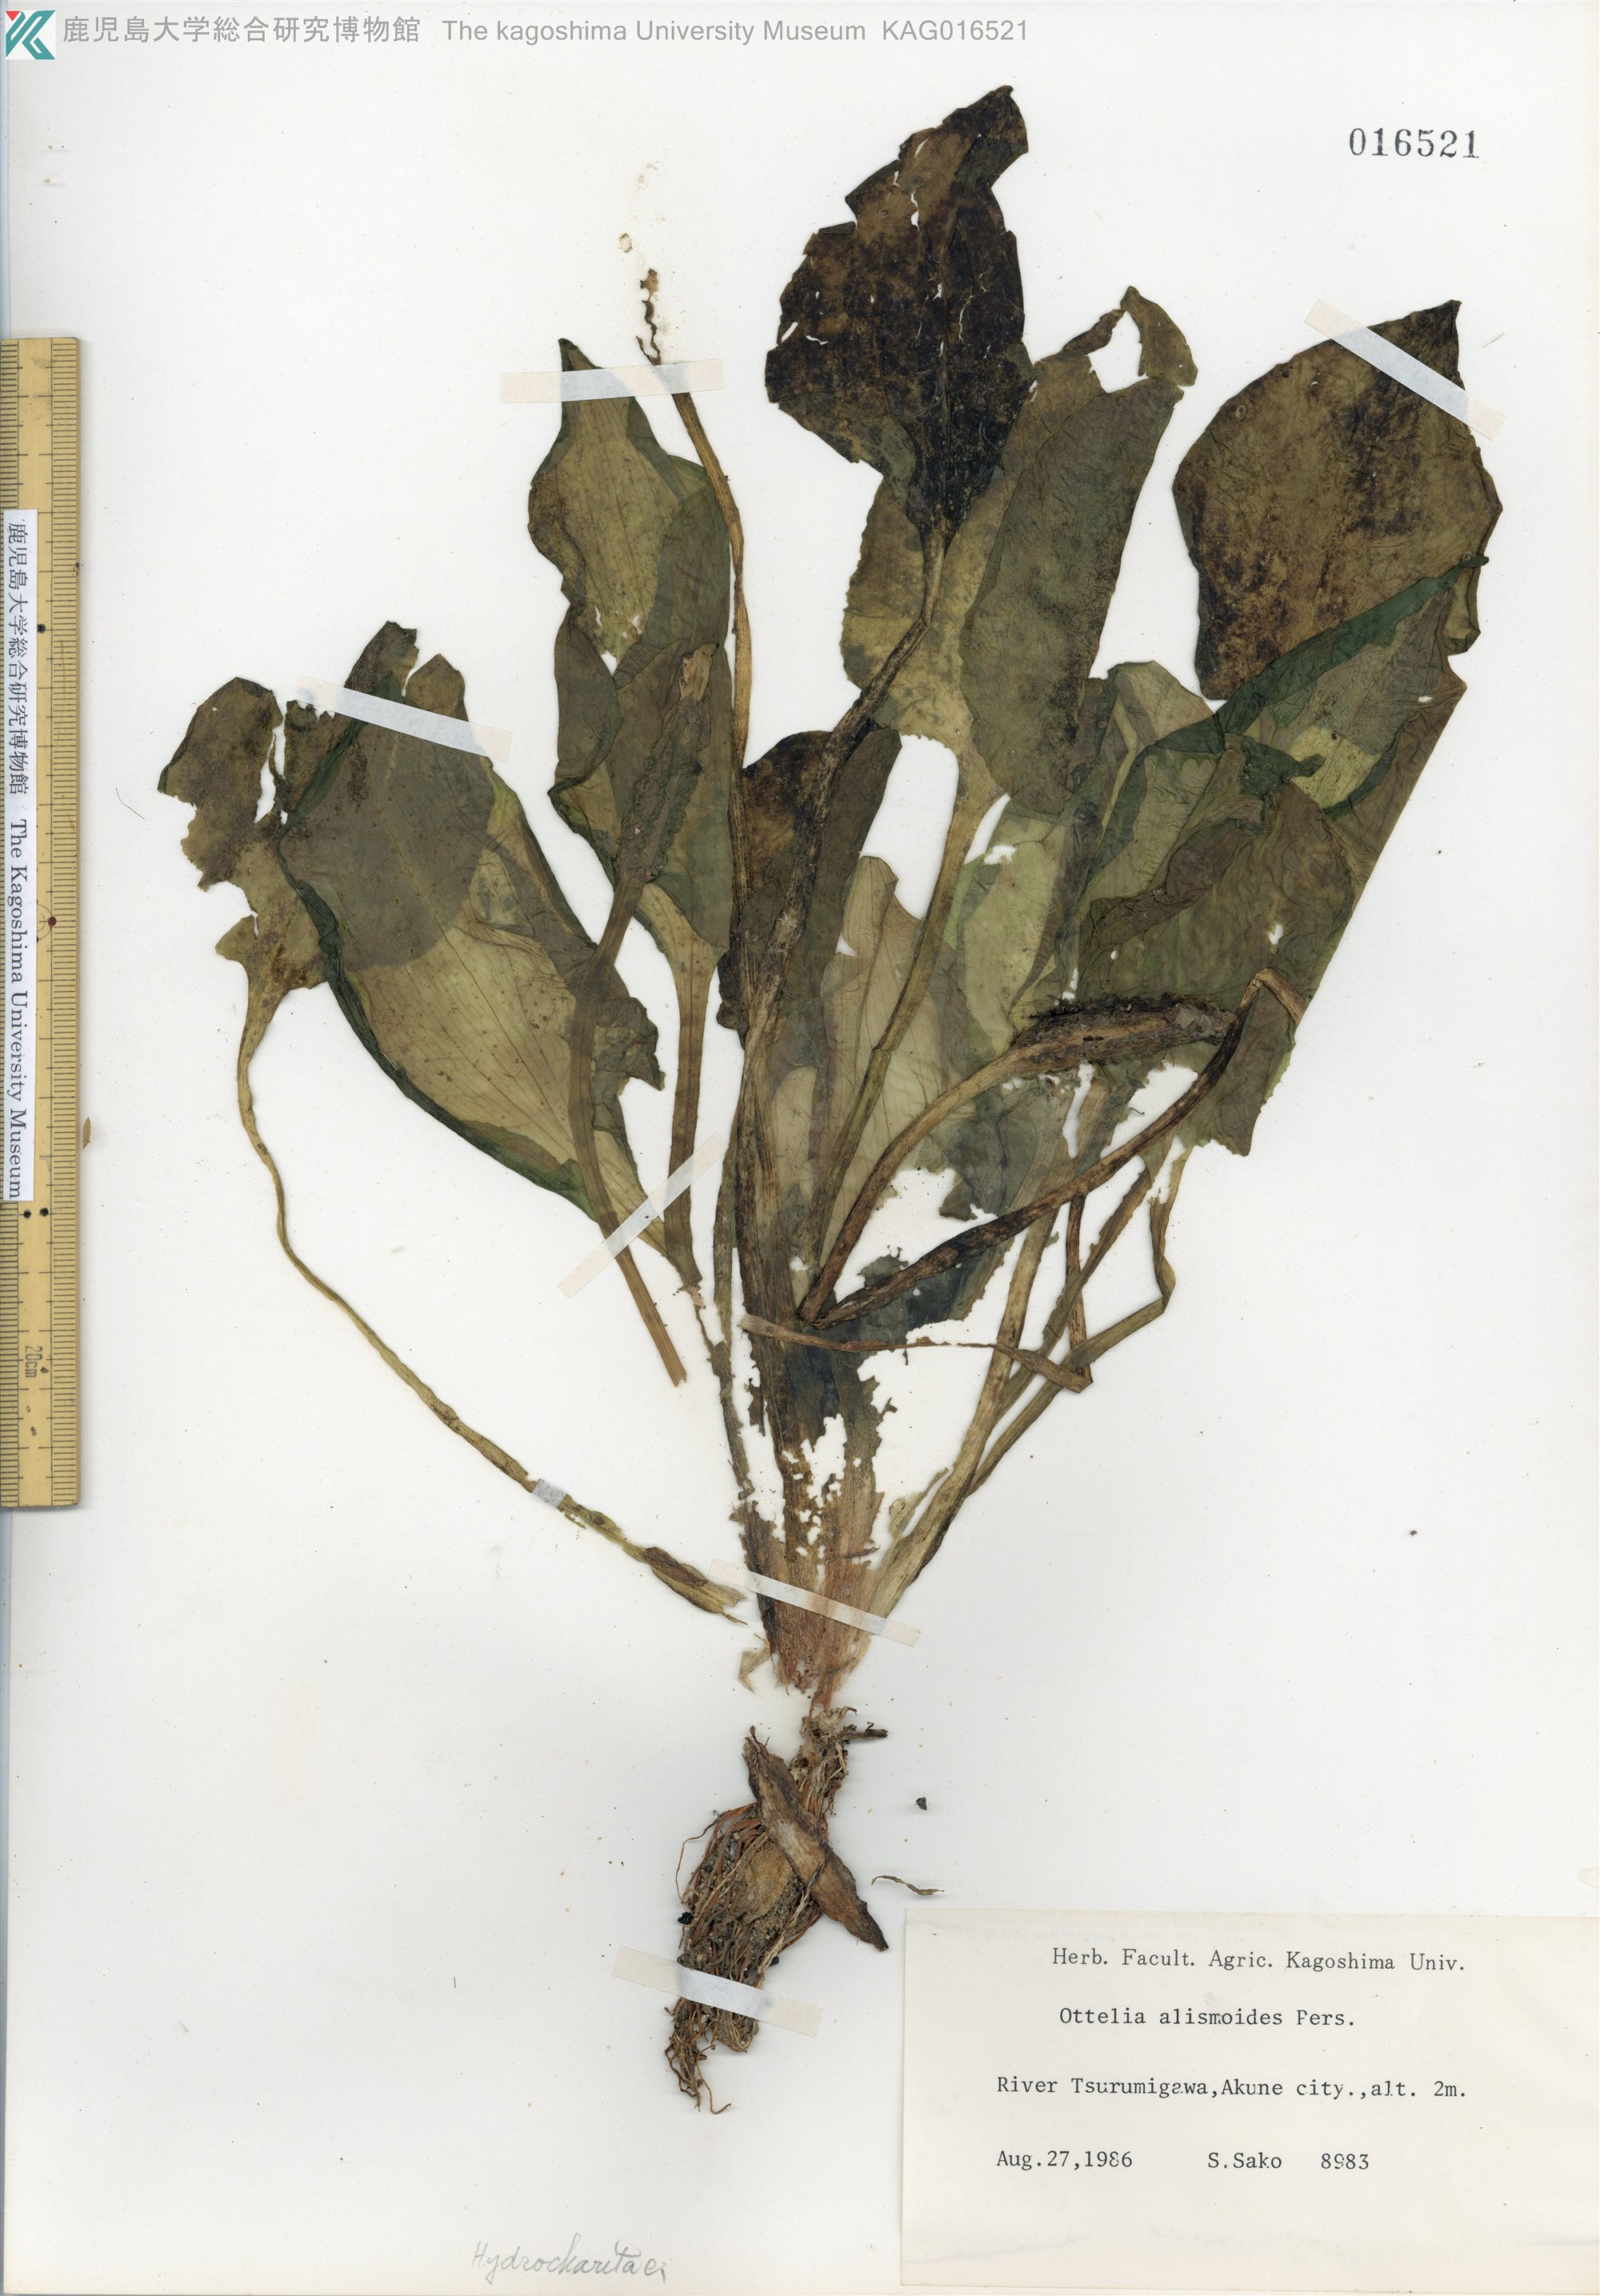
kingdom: Plantae
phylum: Tracheophyta
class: Liliopsida
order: Alismatales
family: Hydrocharitaceae
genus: Ottelia
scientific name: Ottelia alismoides
